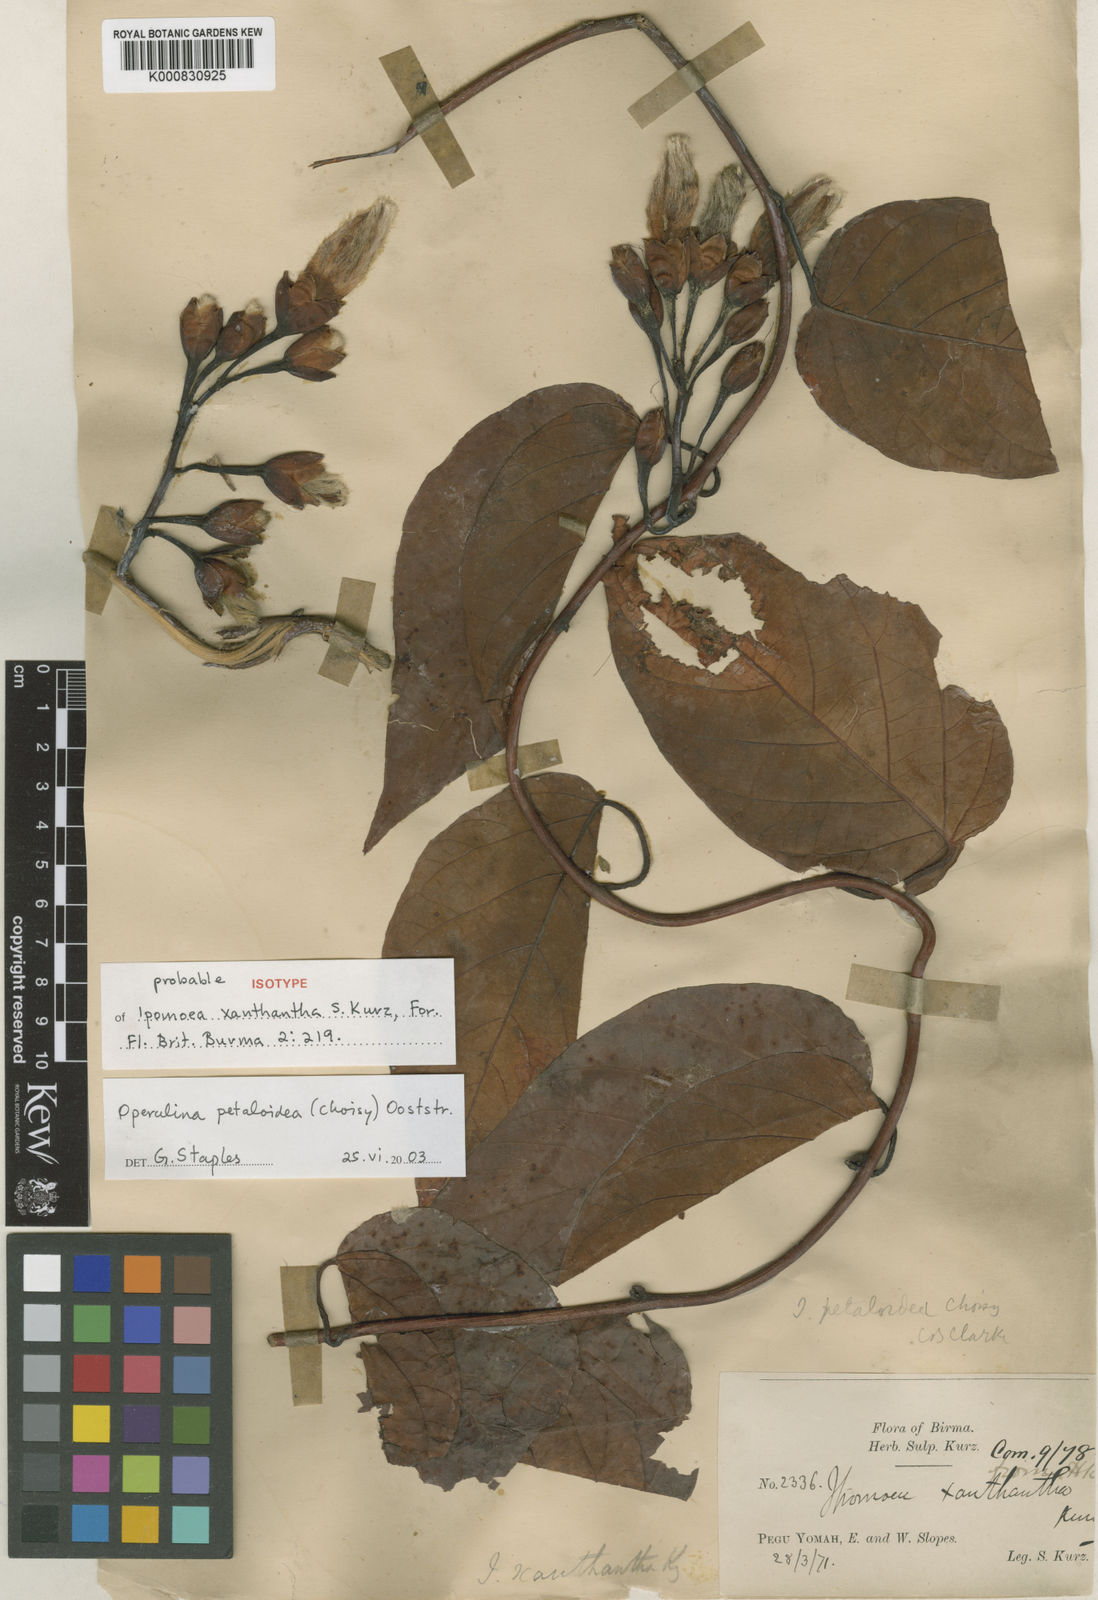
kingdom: Plantae
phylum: Tracheophyta
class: Magnoliopsida
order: Solanales
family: Convolvulaceae
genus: Operculina
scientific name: Operculina petaloidea
